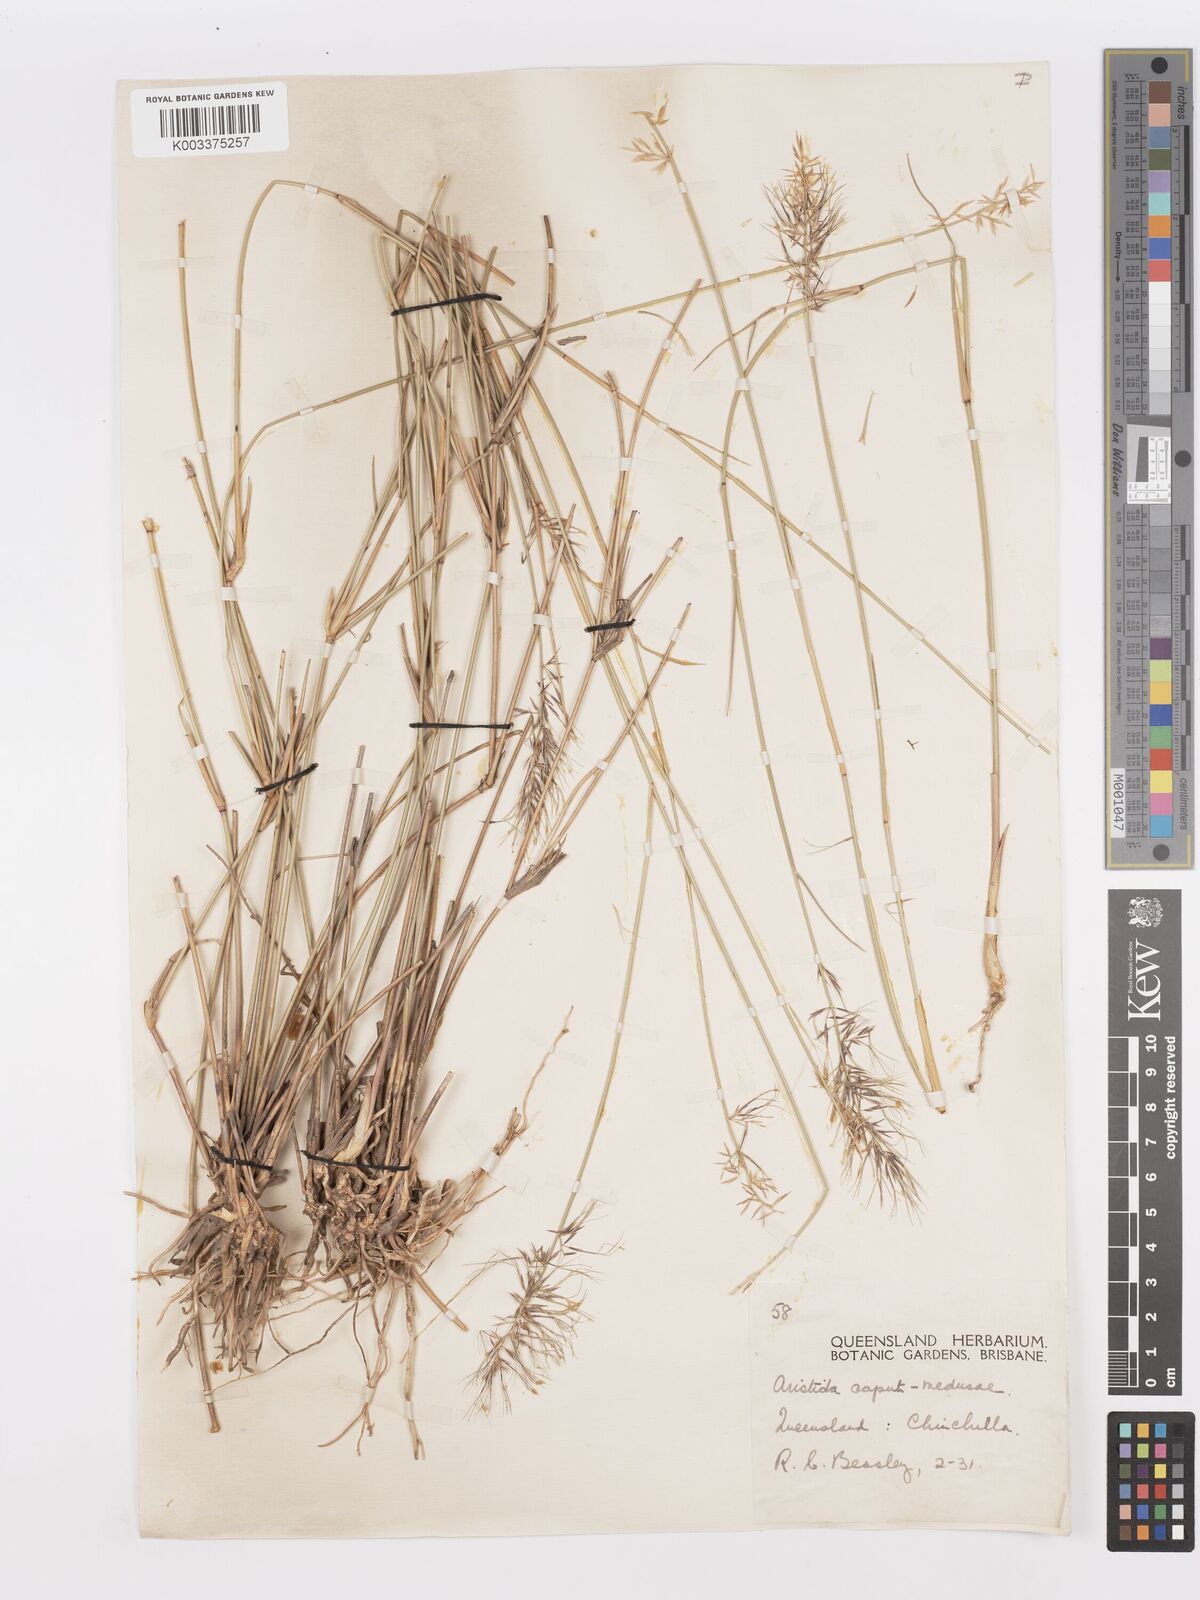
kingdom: Plantae
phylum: Tracheophyta
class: Liliopsida
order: Poales
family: Poaceae
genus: Aristida
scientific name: Aristida caput-medusae
